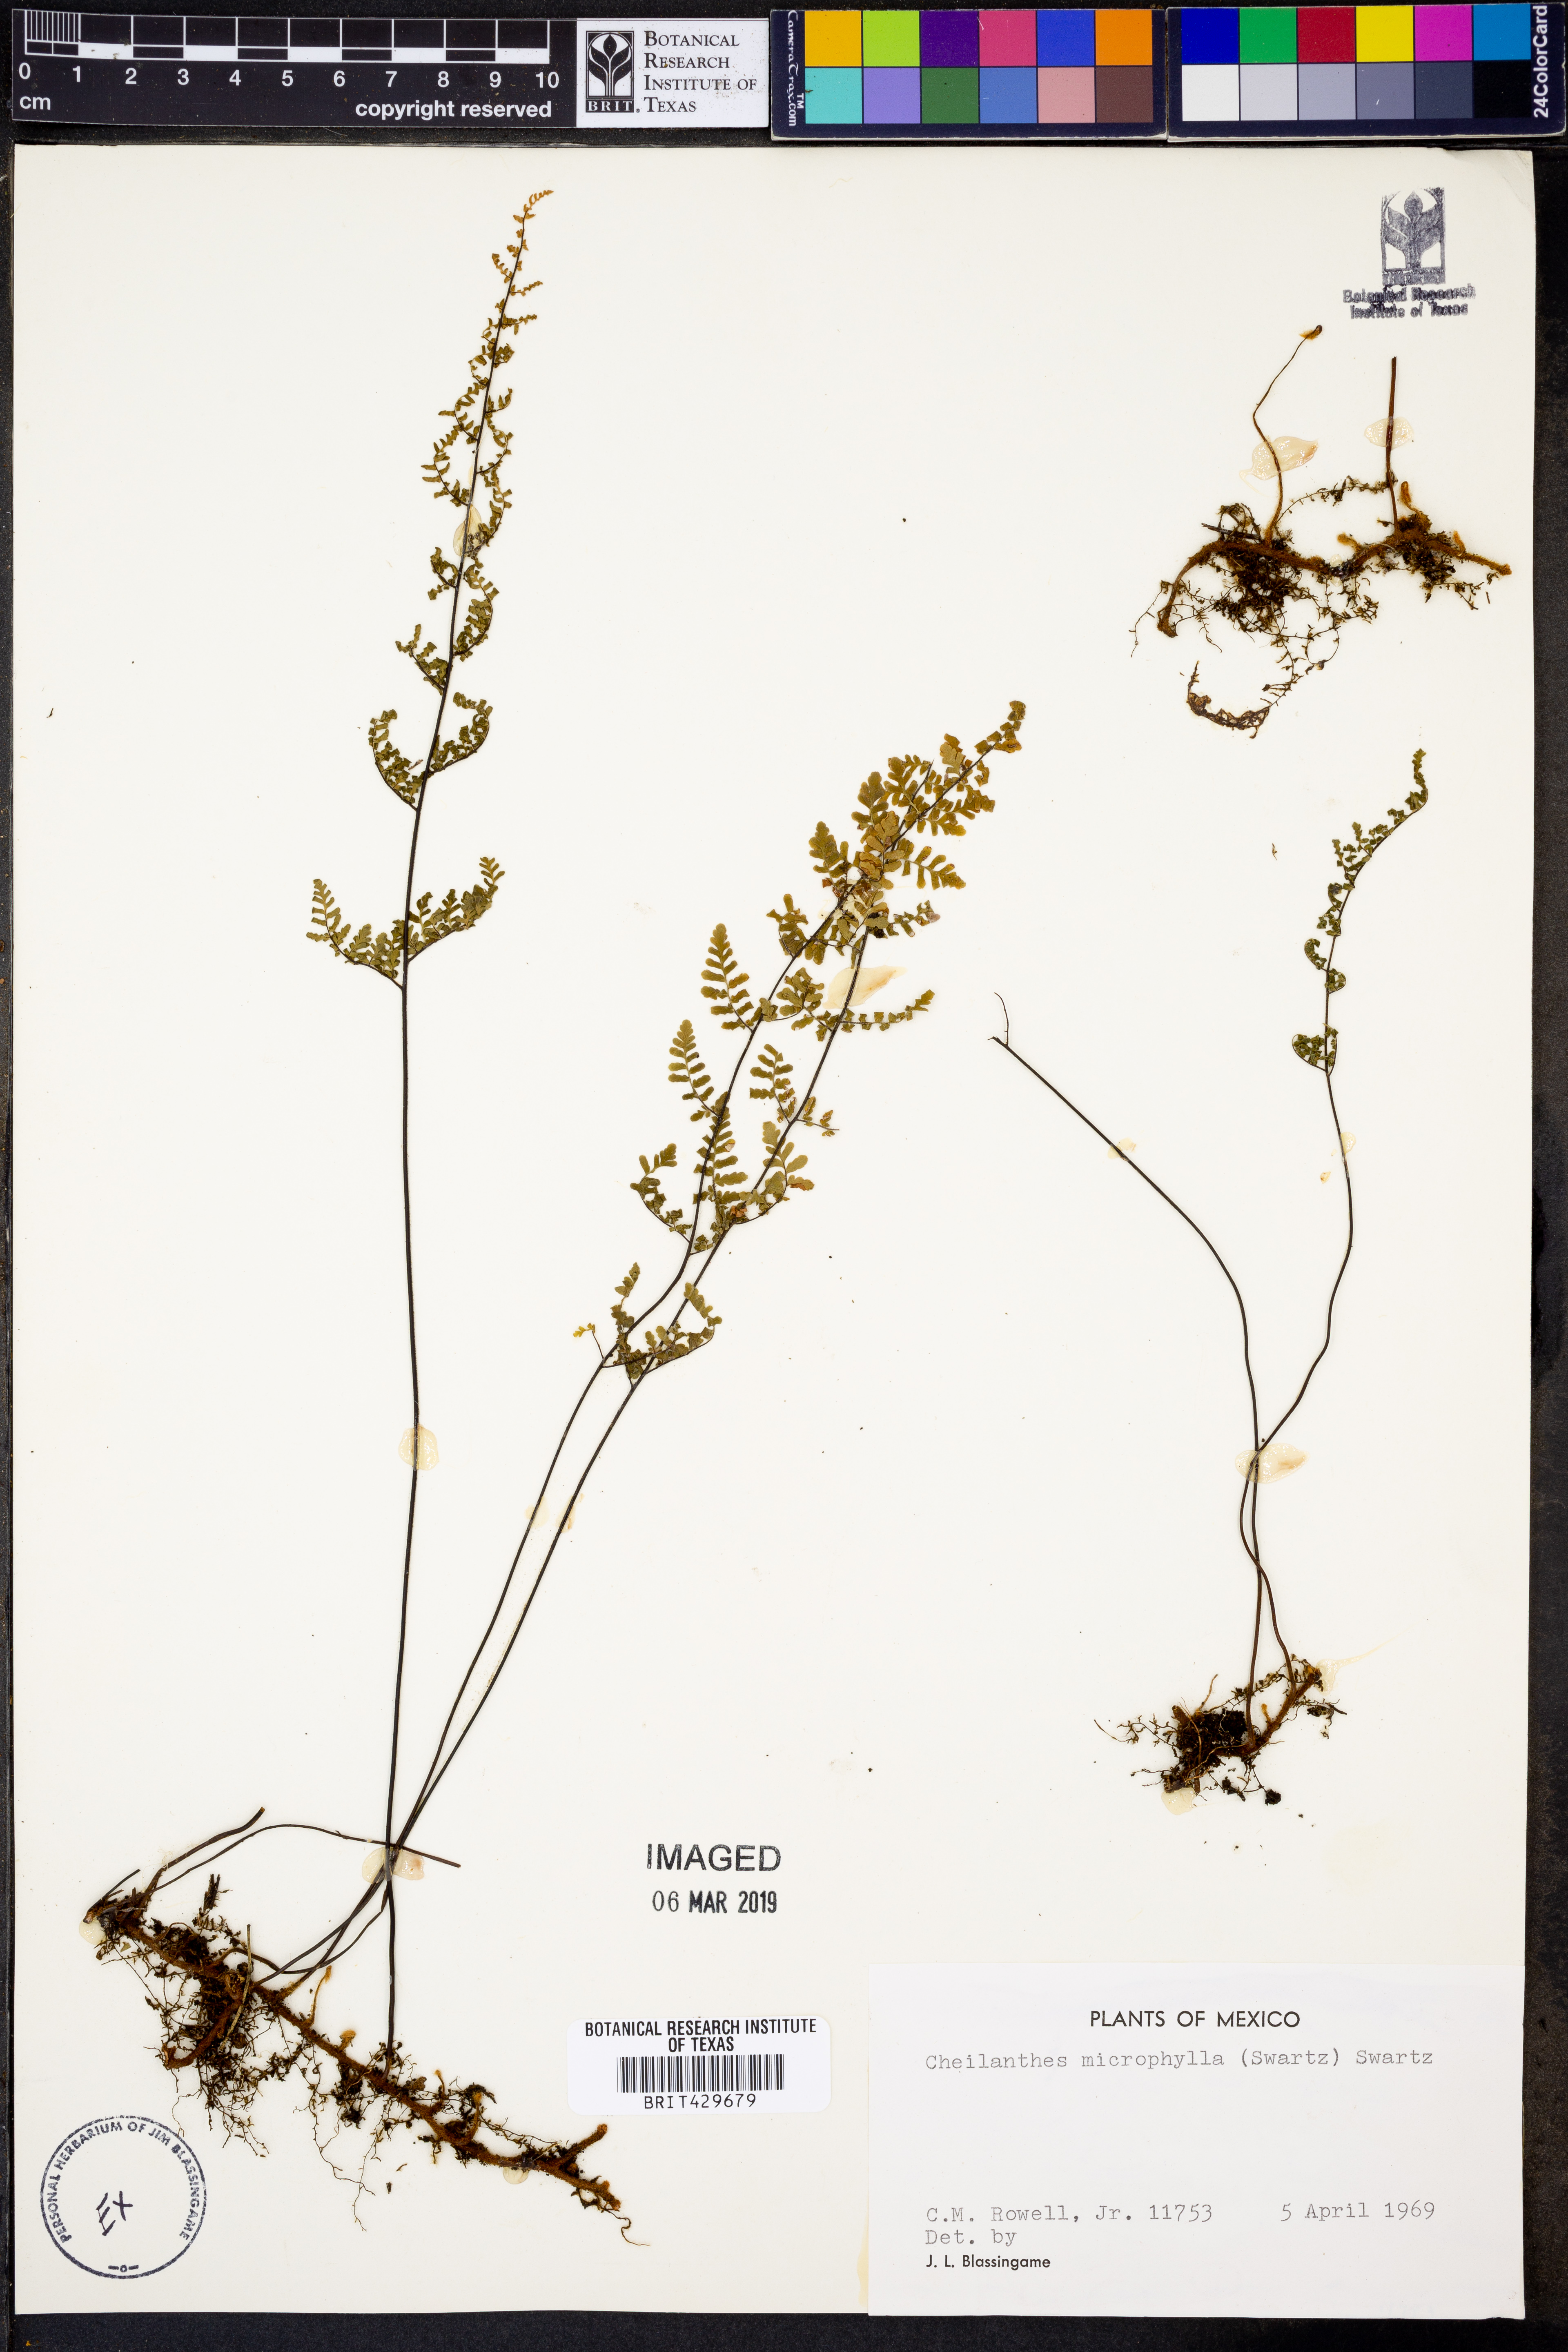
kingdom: Plantae
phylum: Tracheophyta
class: Polypodiopsida
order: Polypodiales
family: Pteridaceae
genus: Myriopteris
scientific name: Myriopteris microphylla
